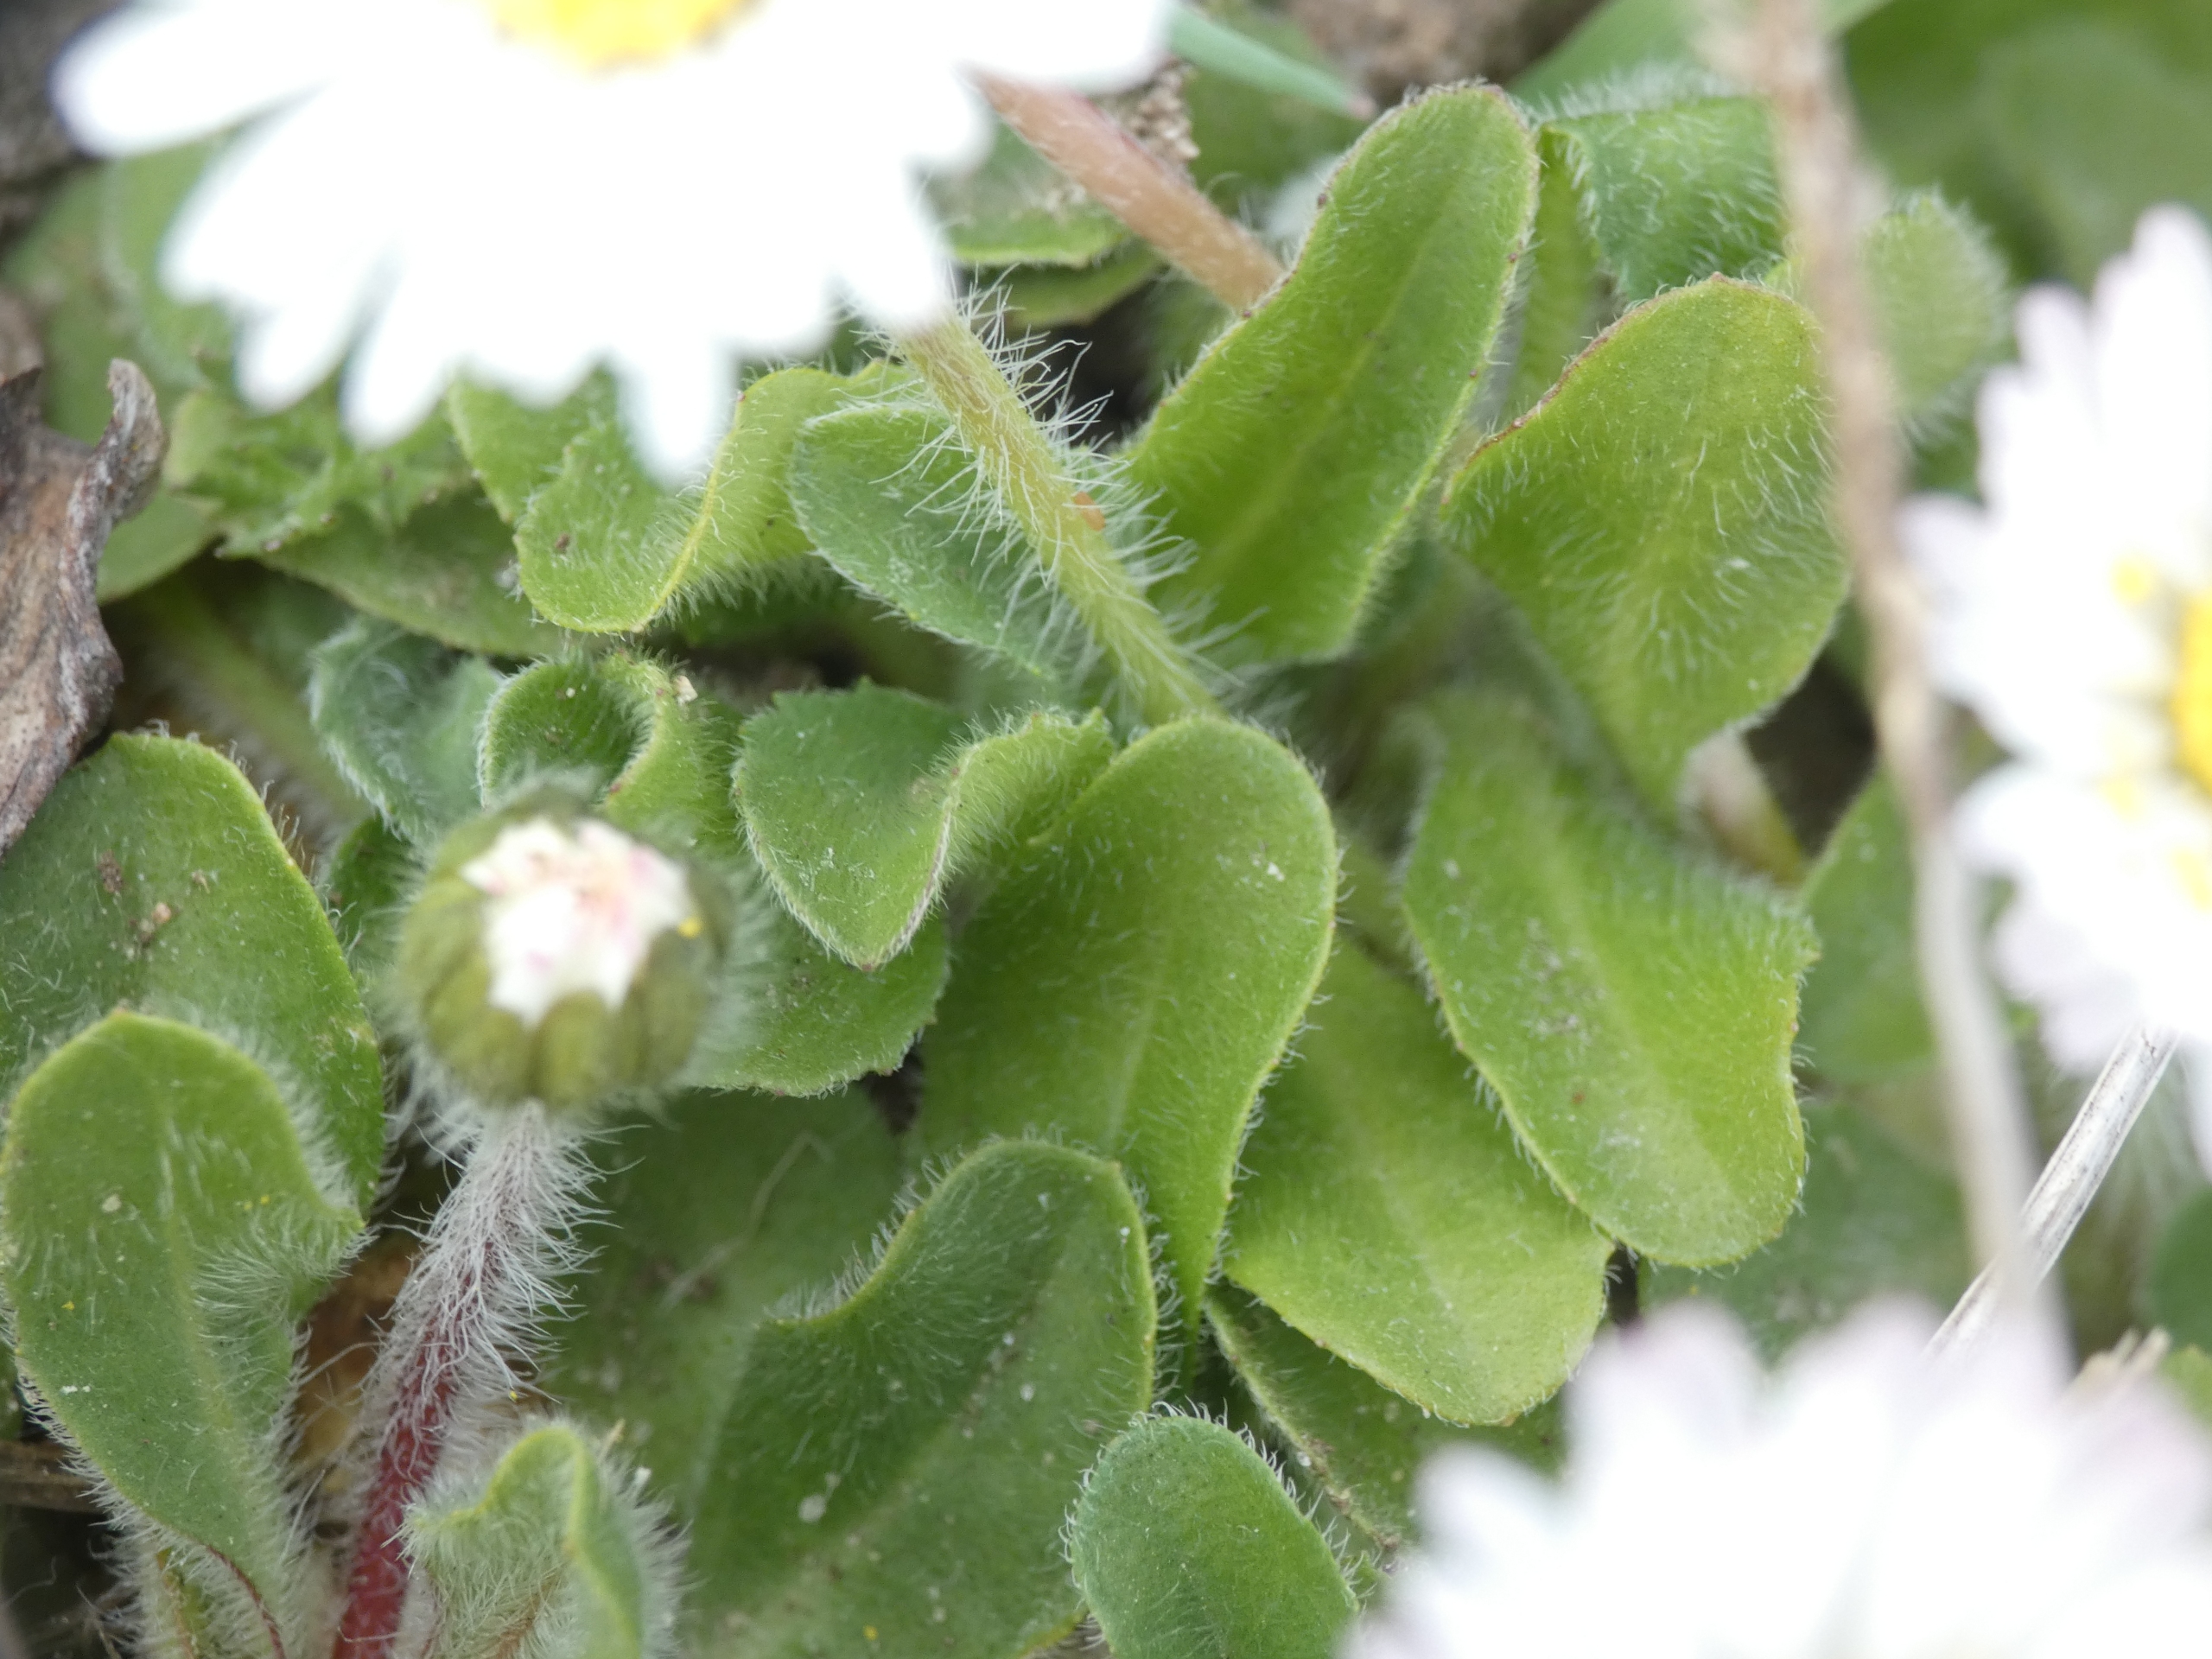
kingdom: Plantae
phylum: Tracheophyta
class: Magnoliopsida
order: Asterales
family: Asteraceae
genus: Bellis
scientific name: Bellis perennis
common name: Tusindfryd
